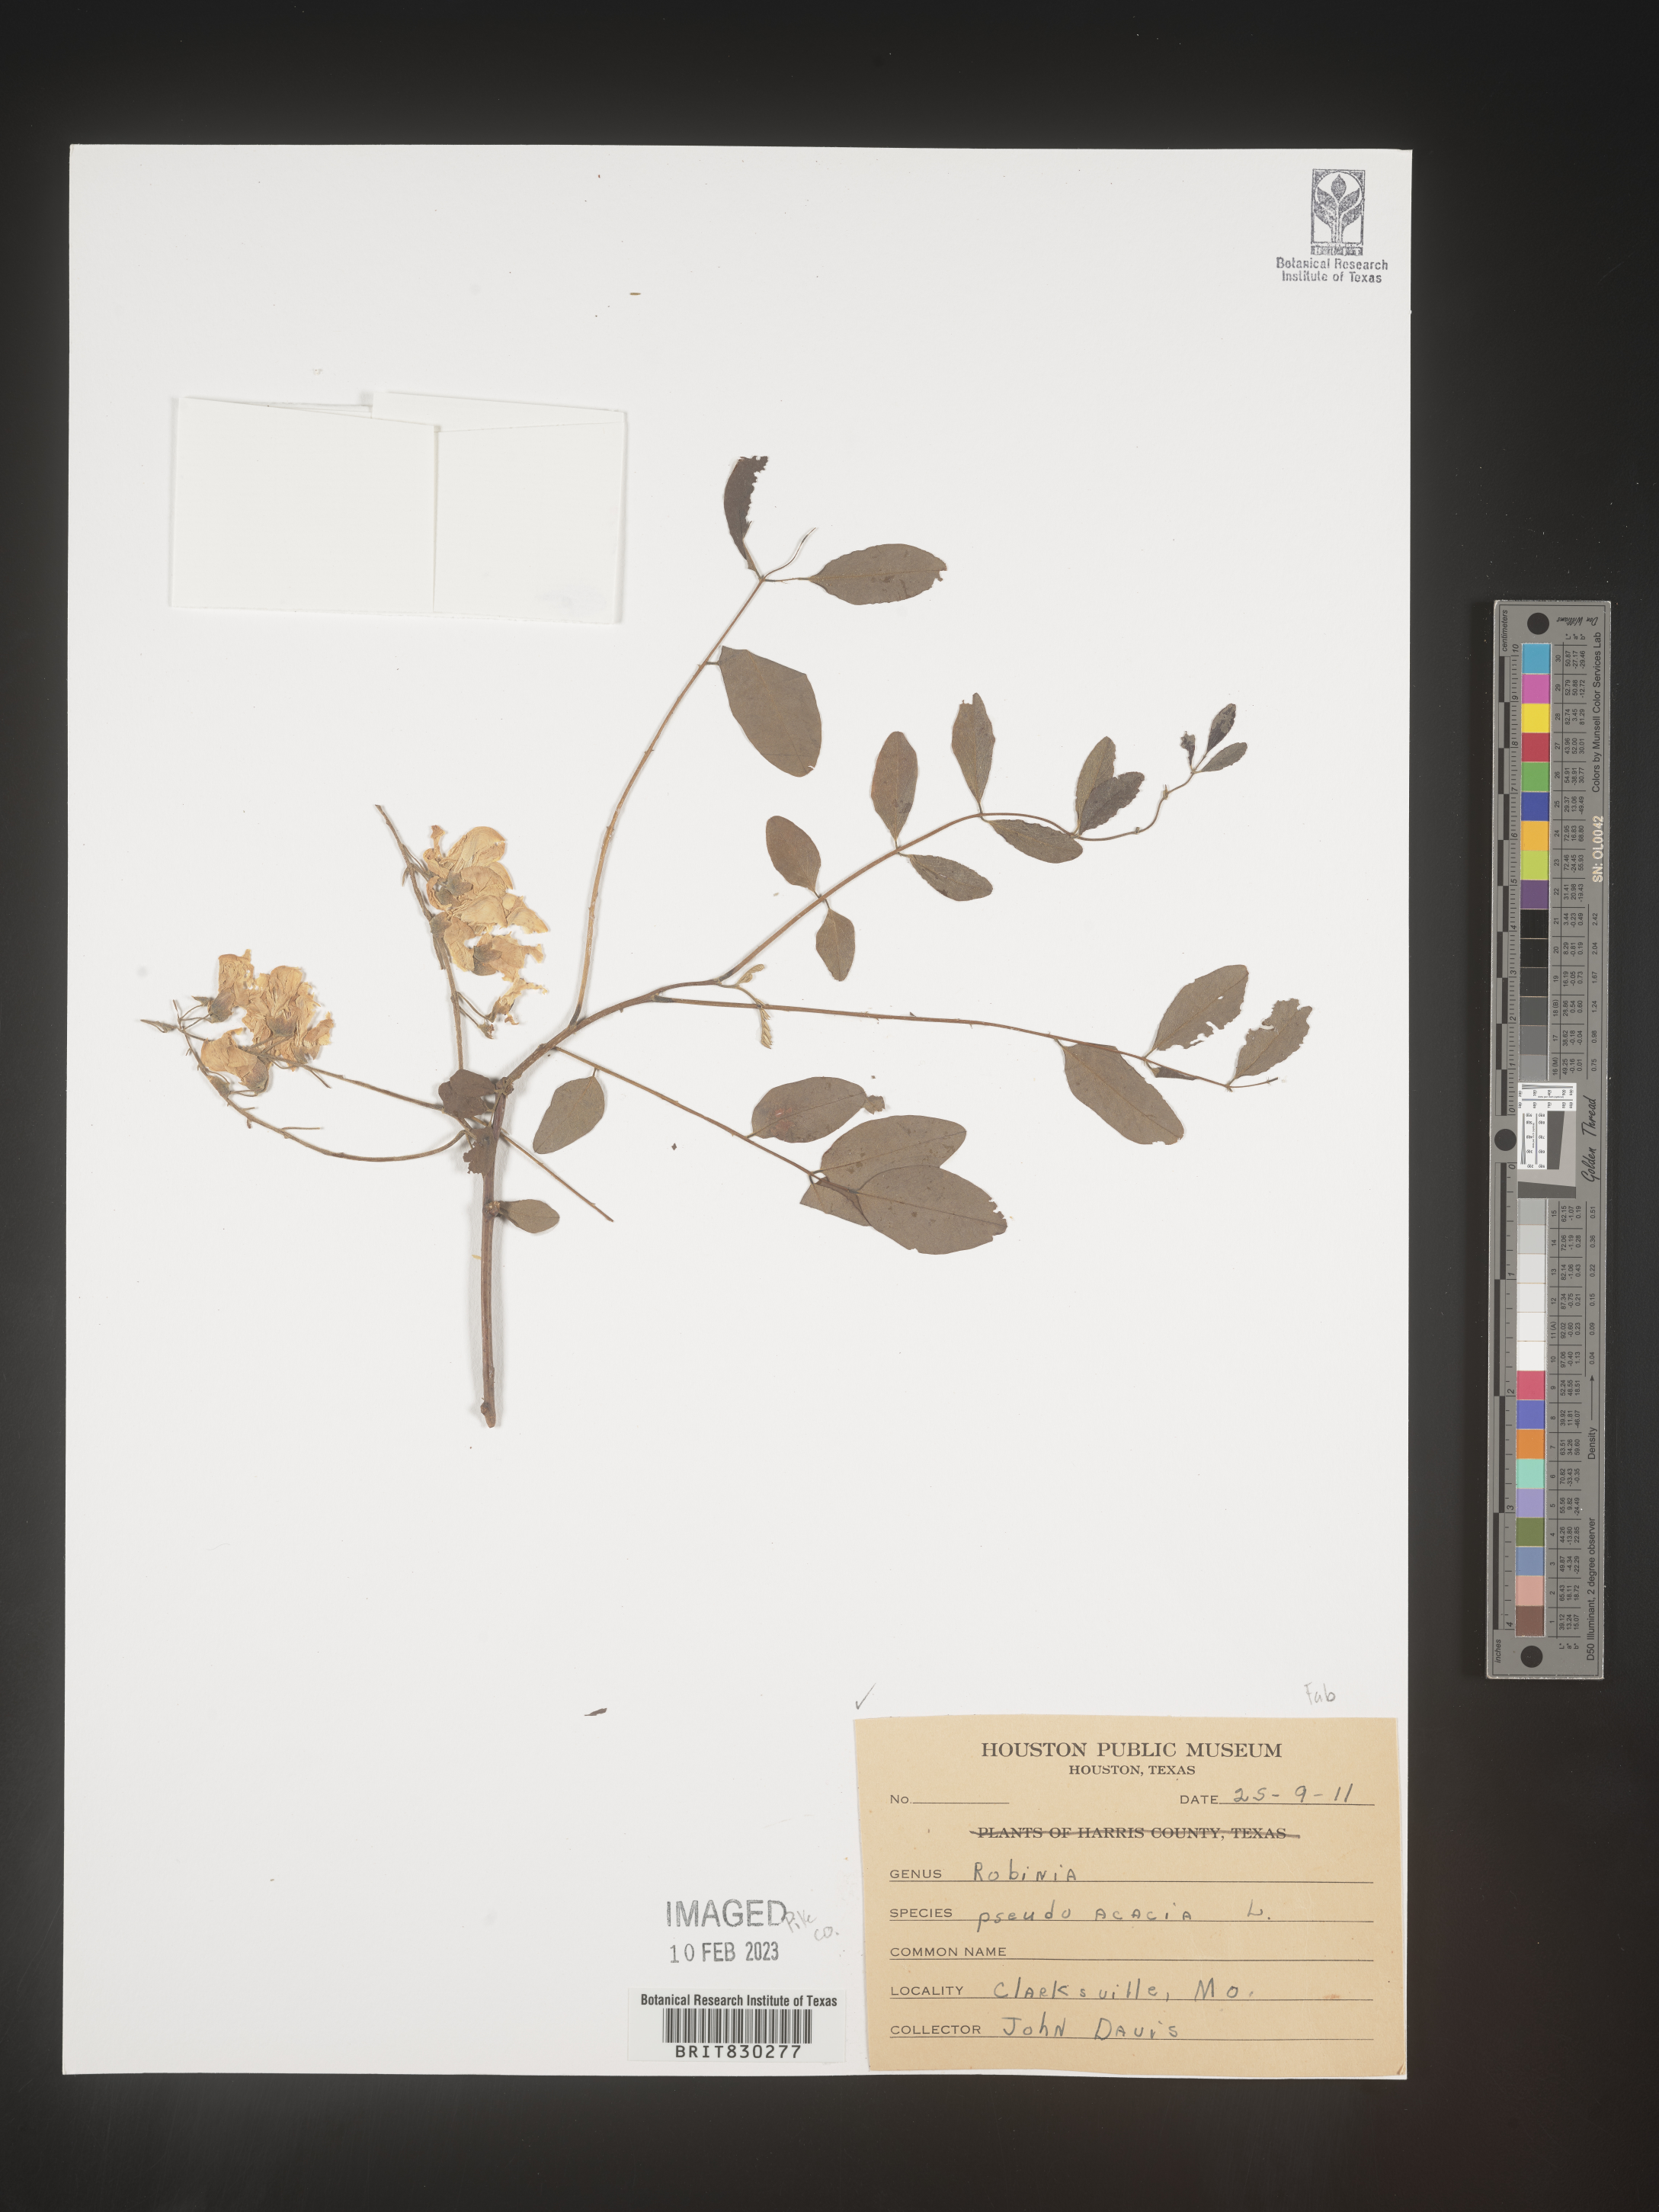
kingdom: Plantae
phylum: Tracheophyta
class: Magnoliopsida
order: Fabales
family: Fabaceae
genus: Robinia
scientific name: Robinia pseudoacacia
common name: Black locust
